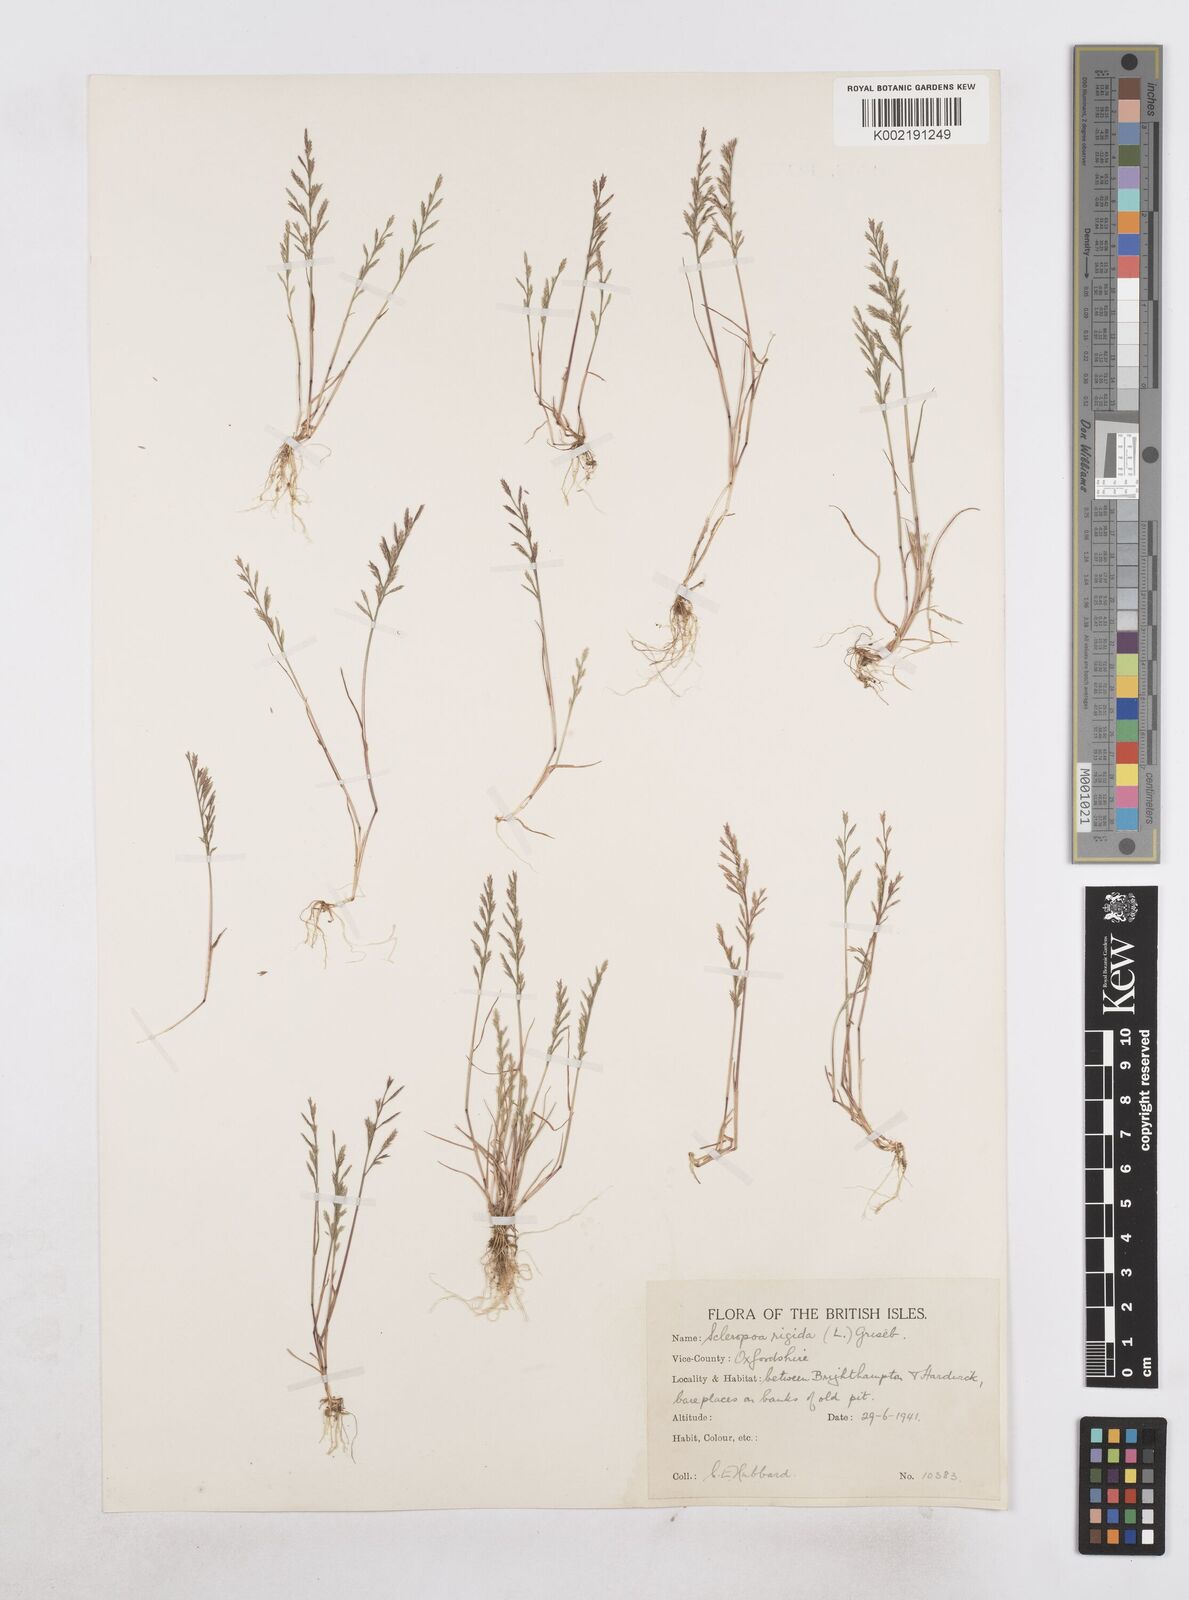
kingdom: Plantae
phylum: Tracheophyta
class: Liliopsida
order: Poales
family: Poaceae
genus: Catapodium
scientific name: Catapodium rigidum
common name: Fern-grass
